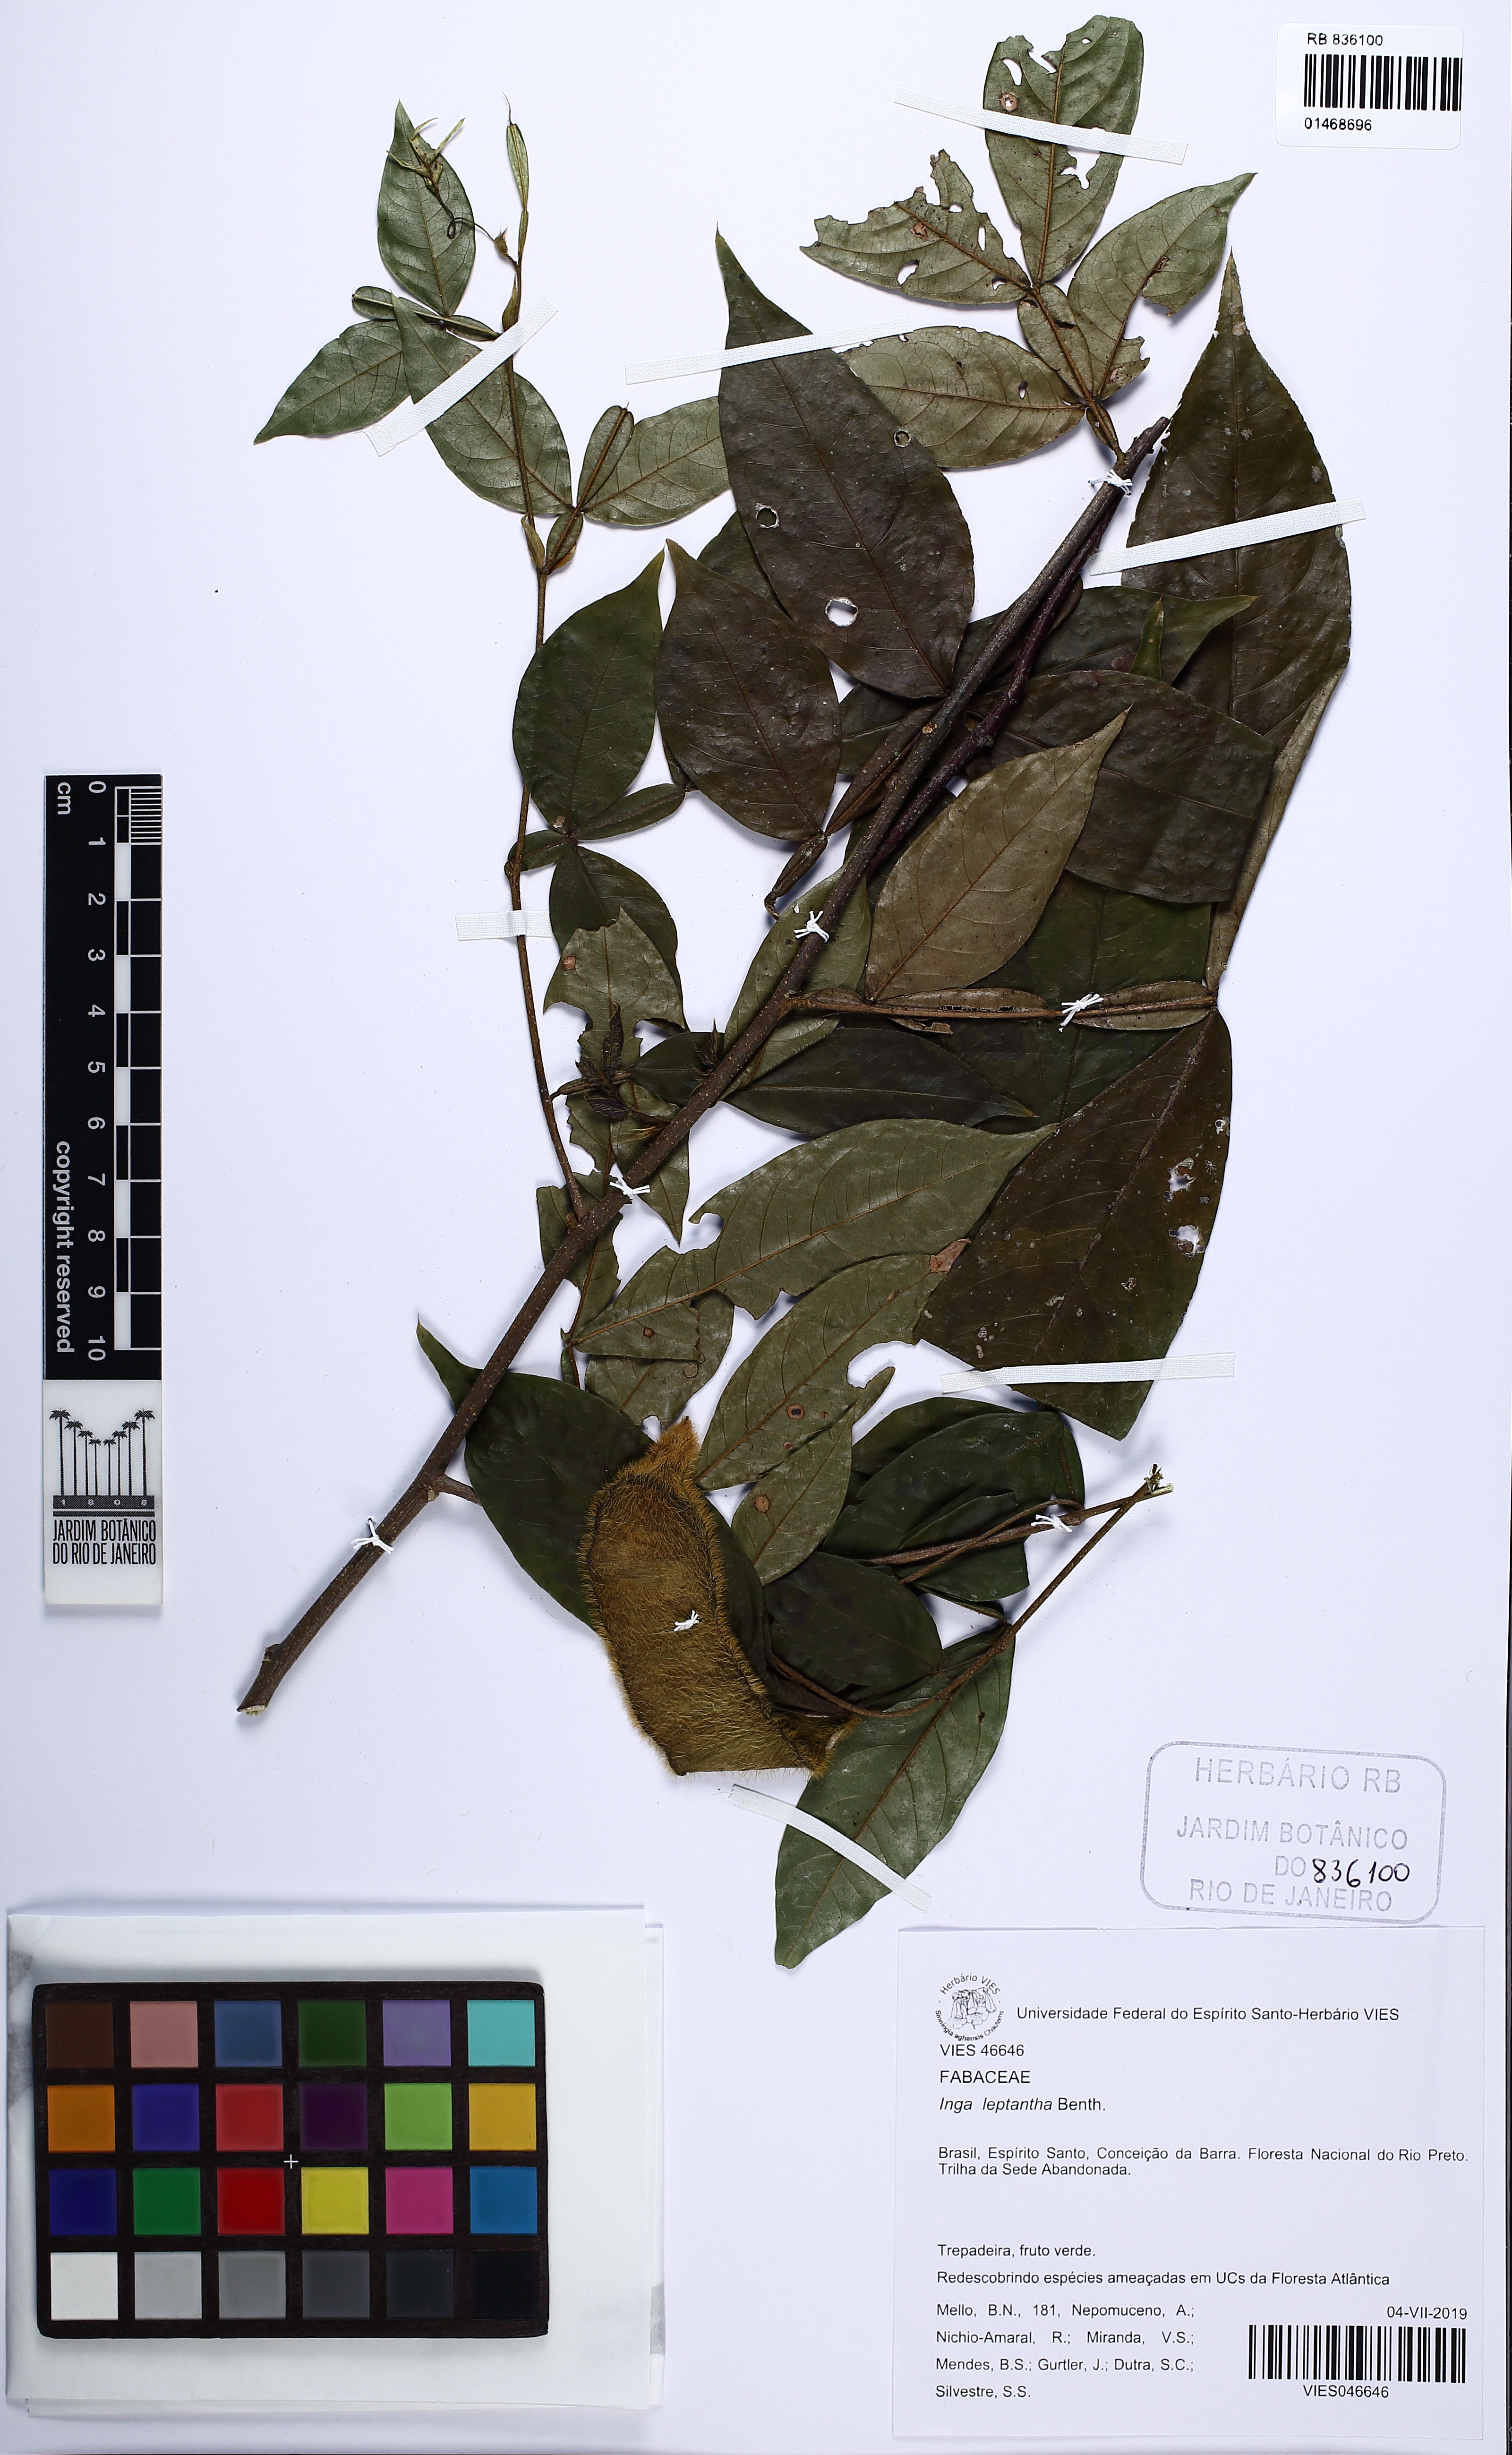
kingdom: Plantae
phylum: Tracheophyta
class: Magnoliopsida
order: Fabales
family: Fabaceae
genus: Inga
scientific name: Inga leptantha
